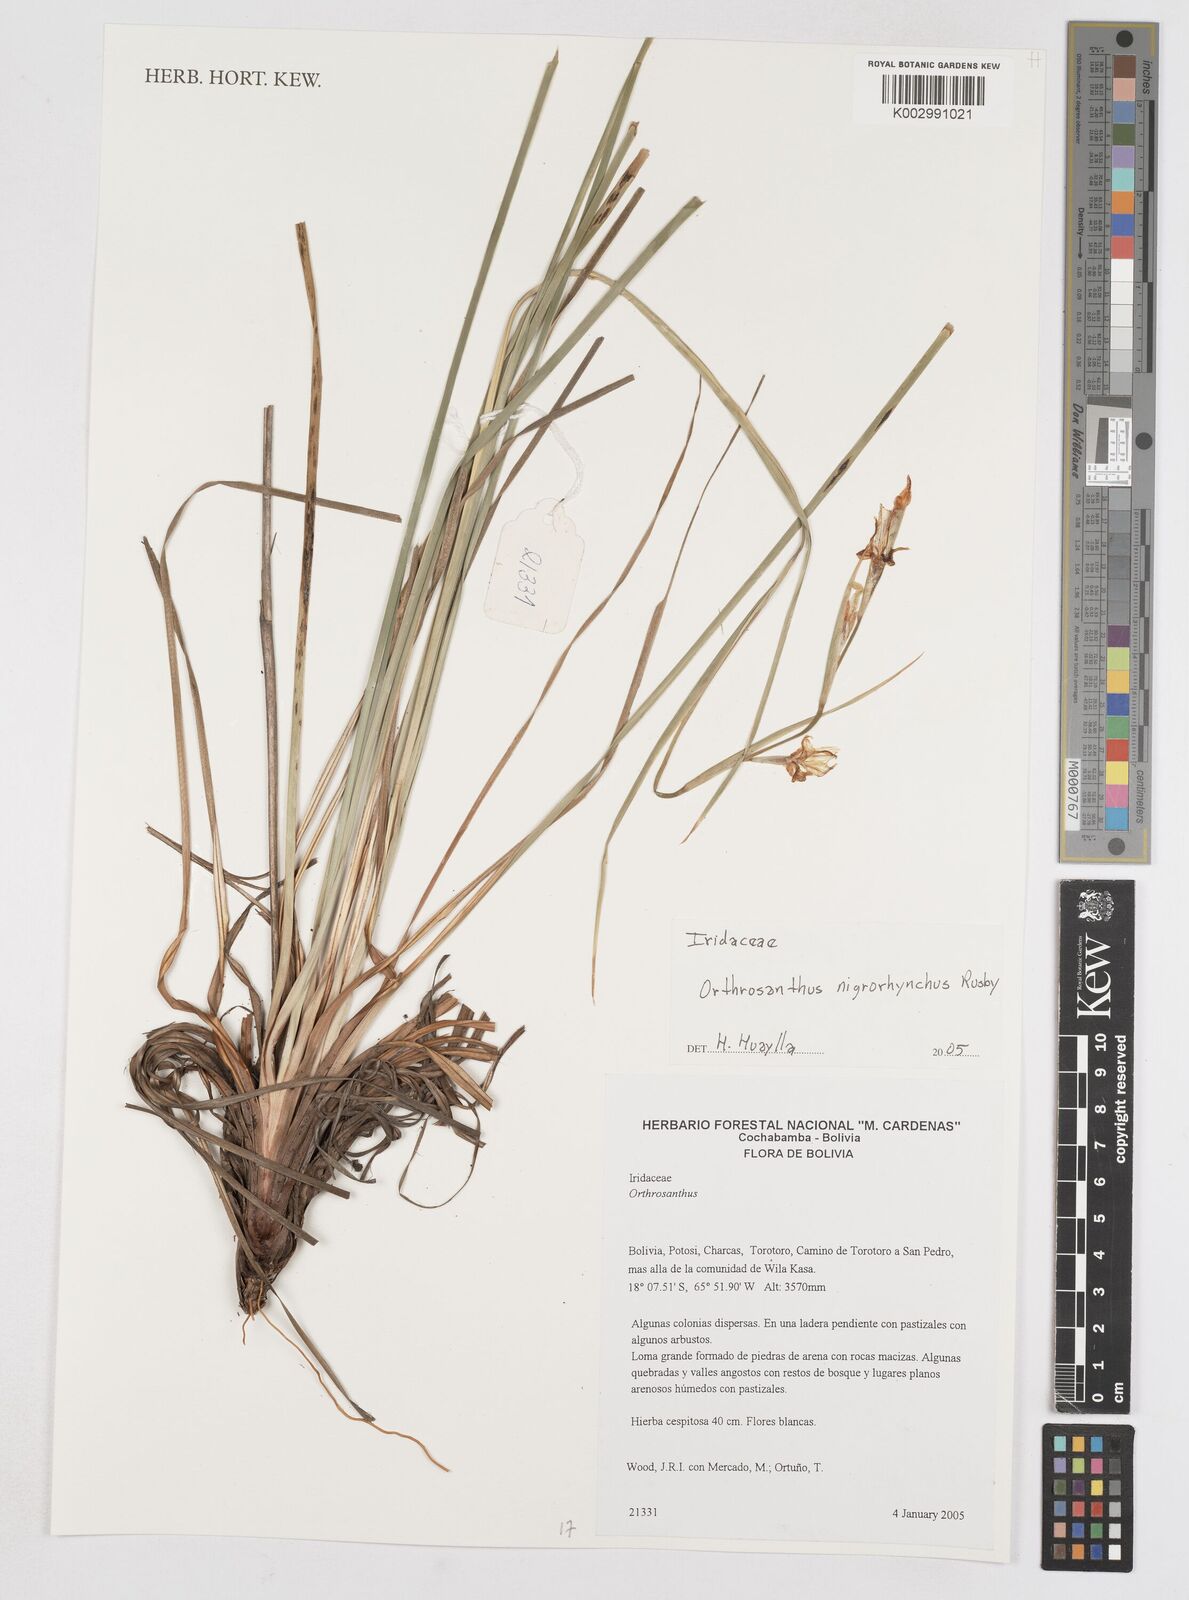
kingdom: Plantae
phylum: Tracheophyta
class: Liliopsida
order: Asparagales
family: Iridaceae
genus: Orthrosanthus
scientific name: Orthrosanthus occissapungus
